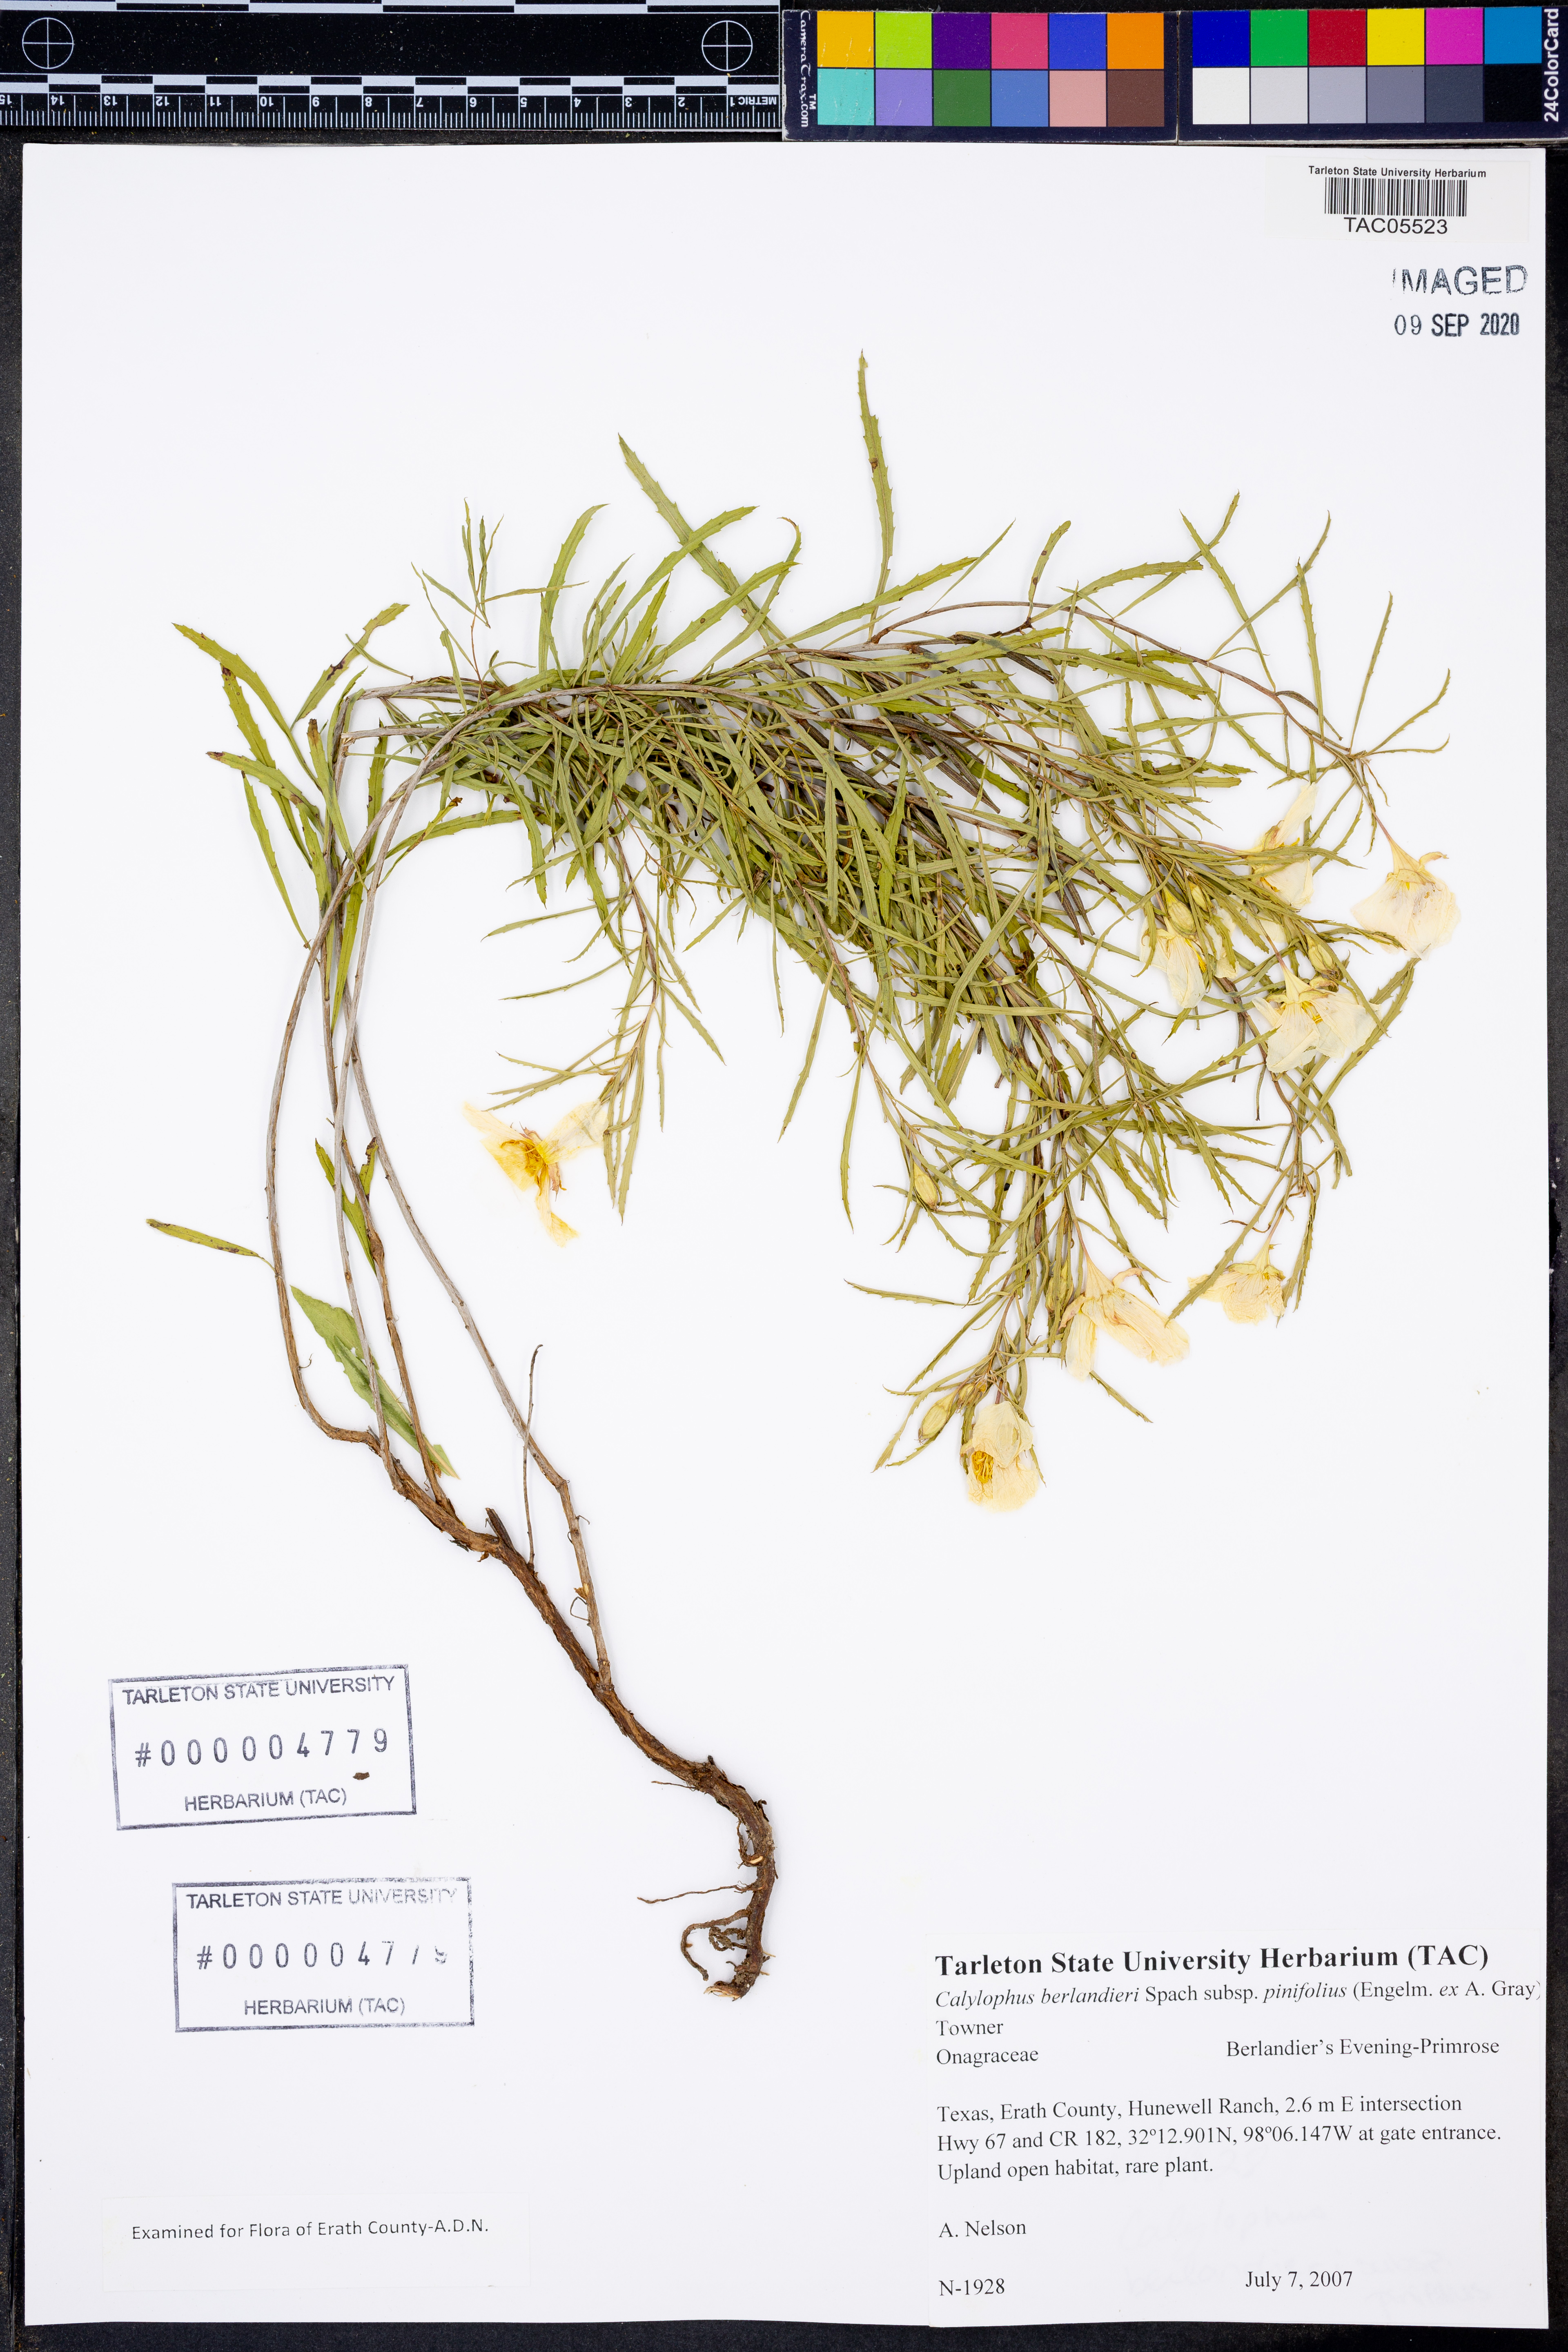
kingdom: Plantae
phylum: Tracheophyta
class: Magnoliopsida
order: Myrtales
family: Onagraceae
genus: Oenothera
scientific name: Oenothera capillifolia
